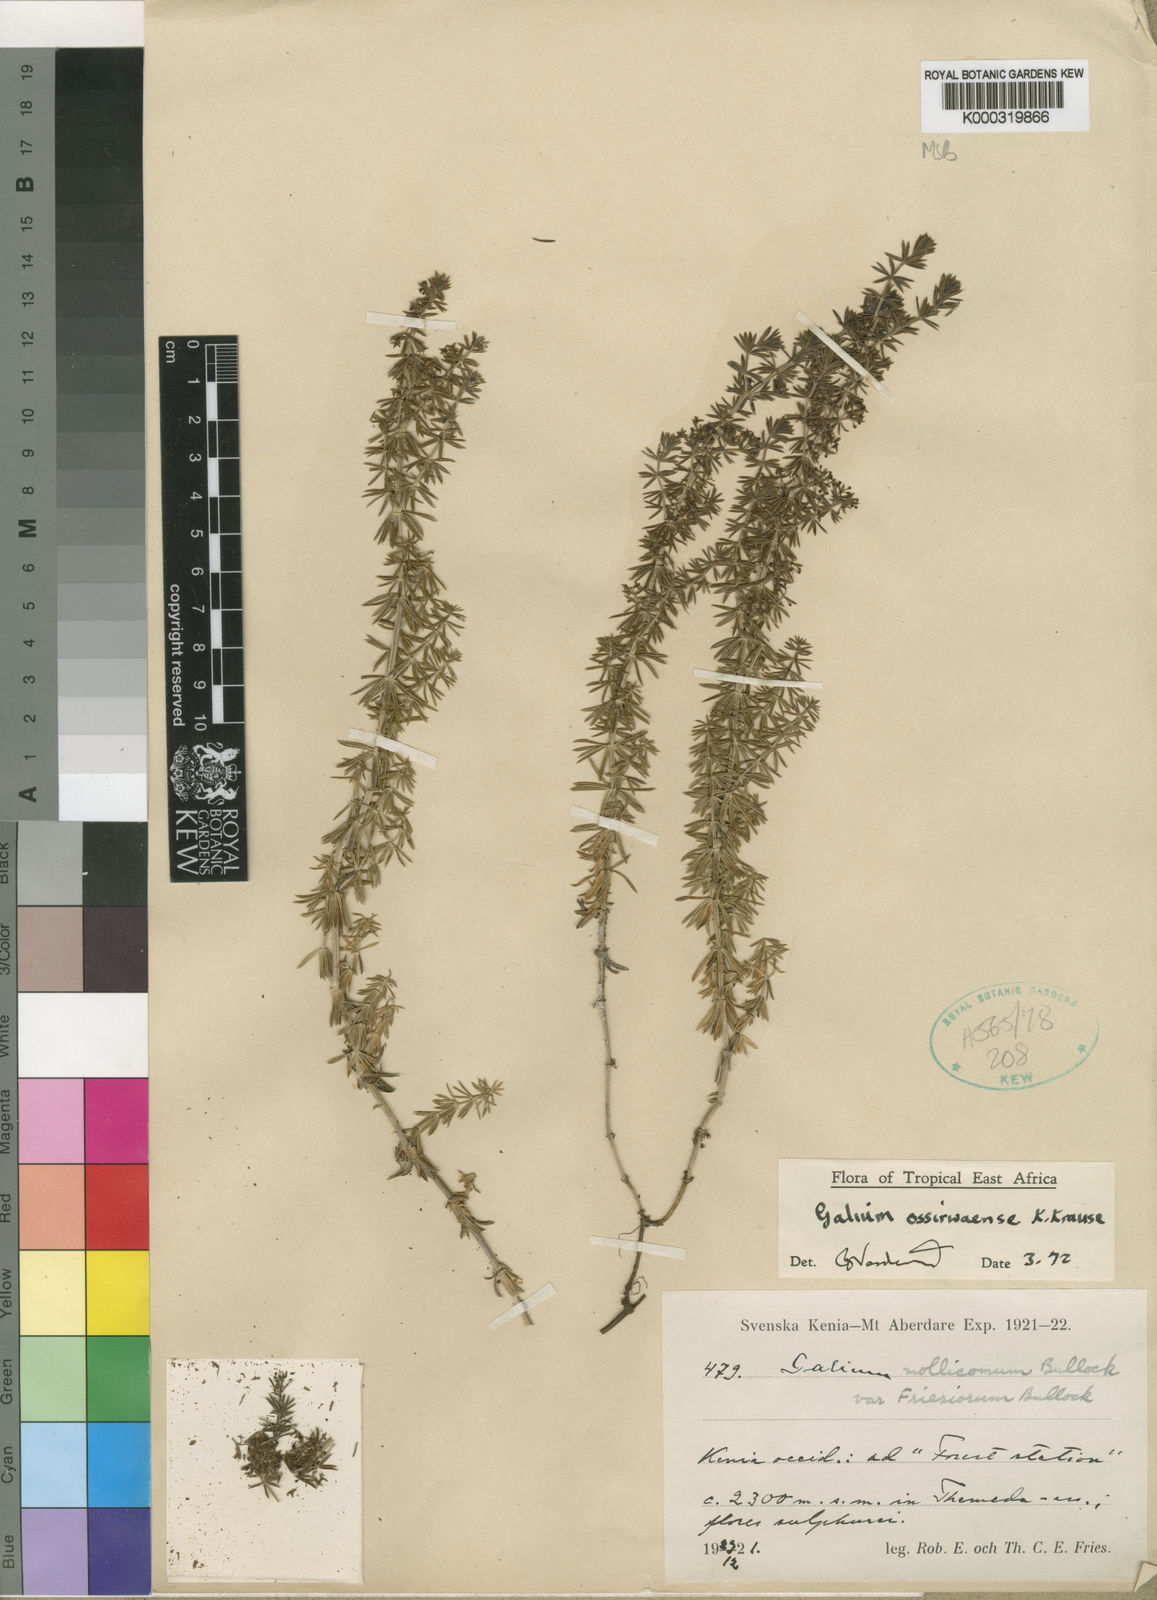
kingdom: Plantae
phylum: Tracheophyta
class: Magnoliopsida
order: Gentianales
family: Rubiaceae
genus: Galium
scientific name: Galium ossirwaense
